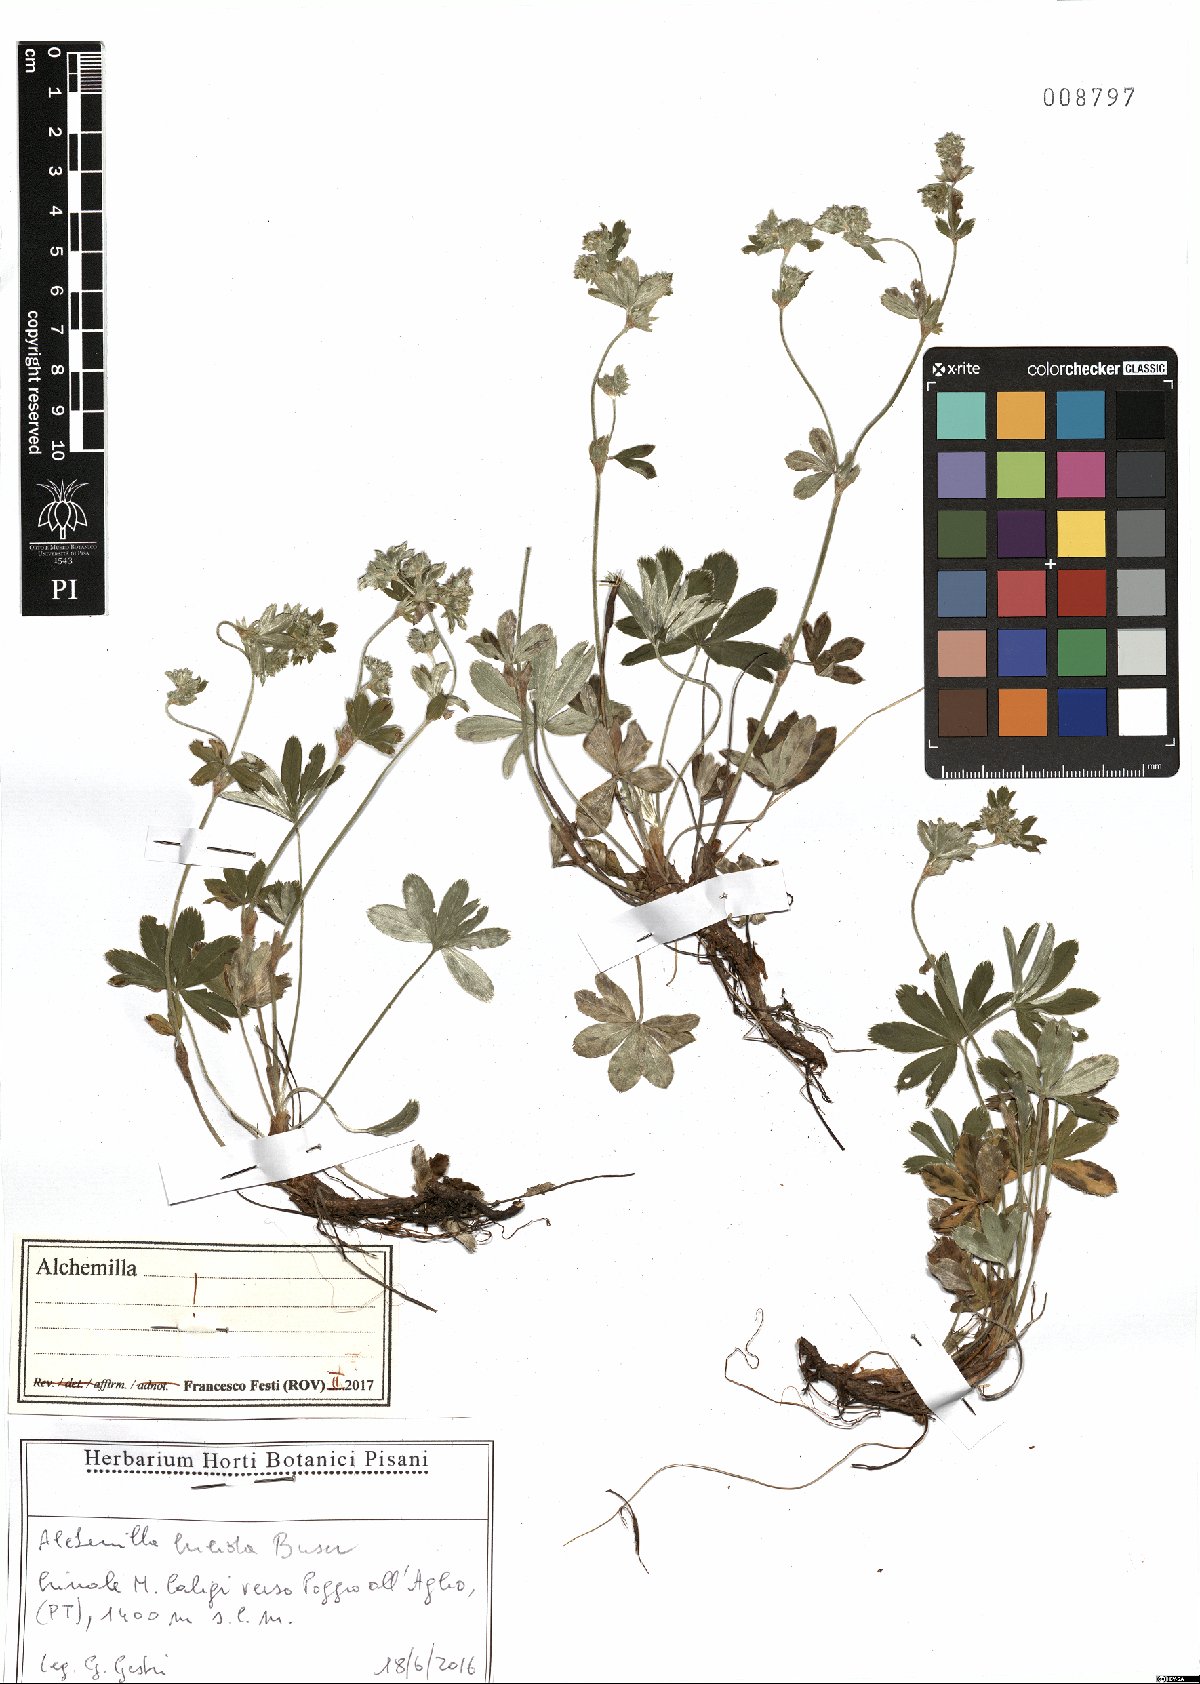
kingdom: Plantae
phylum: Tracheophyta
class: Magnoliopsida
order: Rosales
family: Rosaceae
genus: Alchemilla
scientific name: Alchemilla lucida
